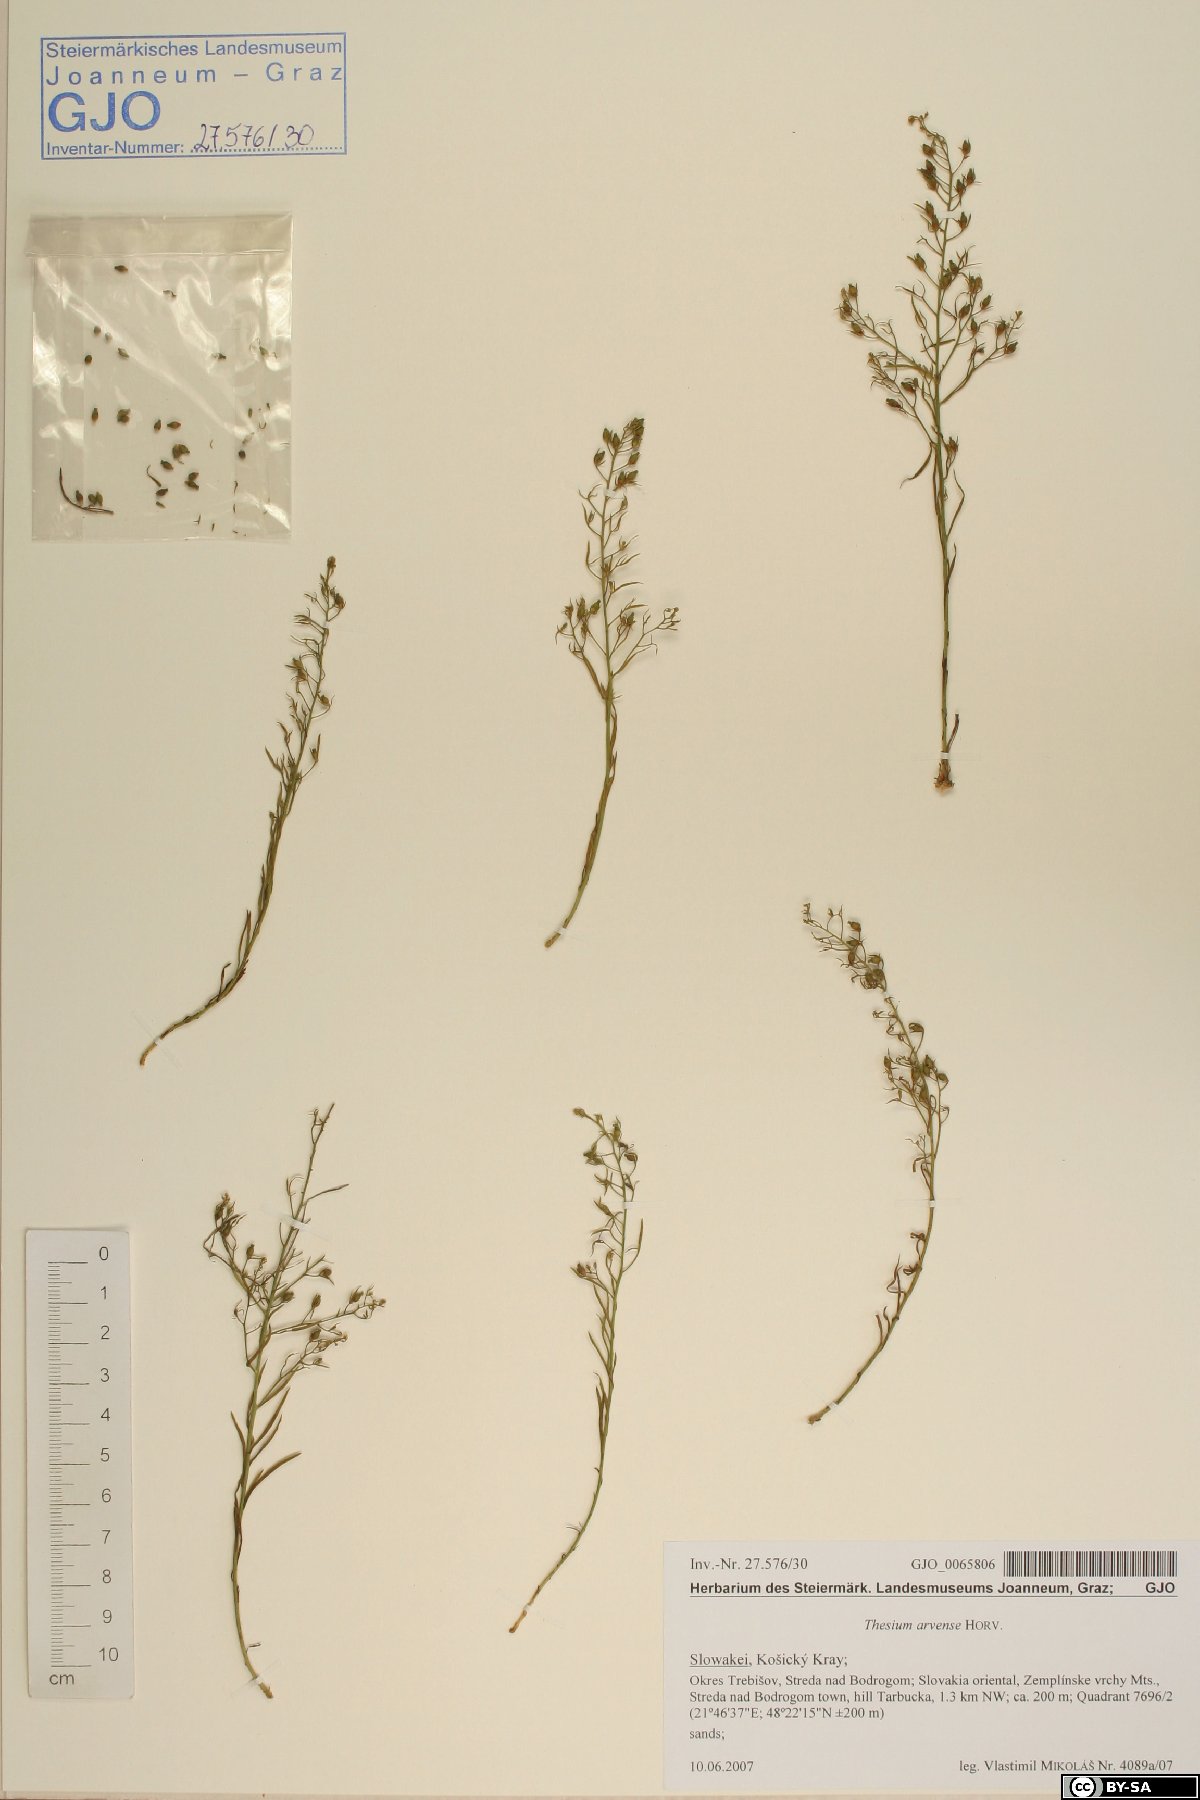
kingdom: Plantae
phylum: Tracheophyta
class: Magnoliopsida
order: Santalales
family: Thesiaceae
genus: Thesium
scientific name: Thesium
